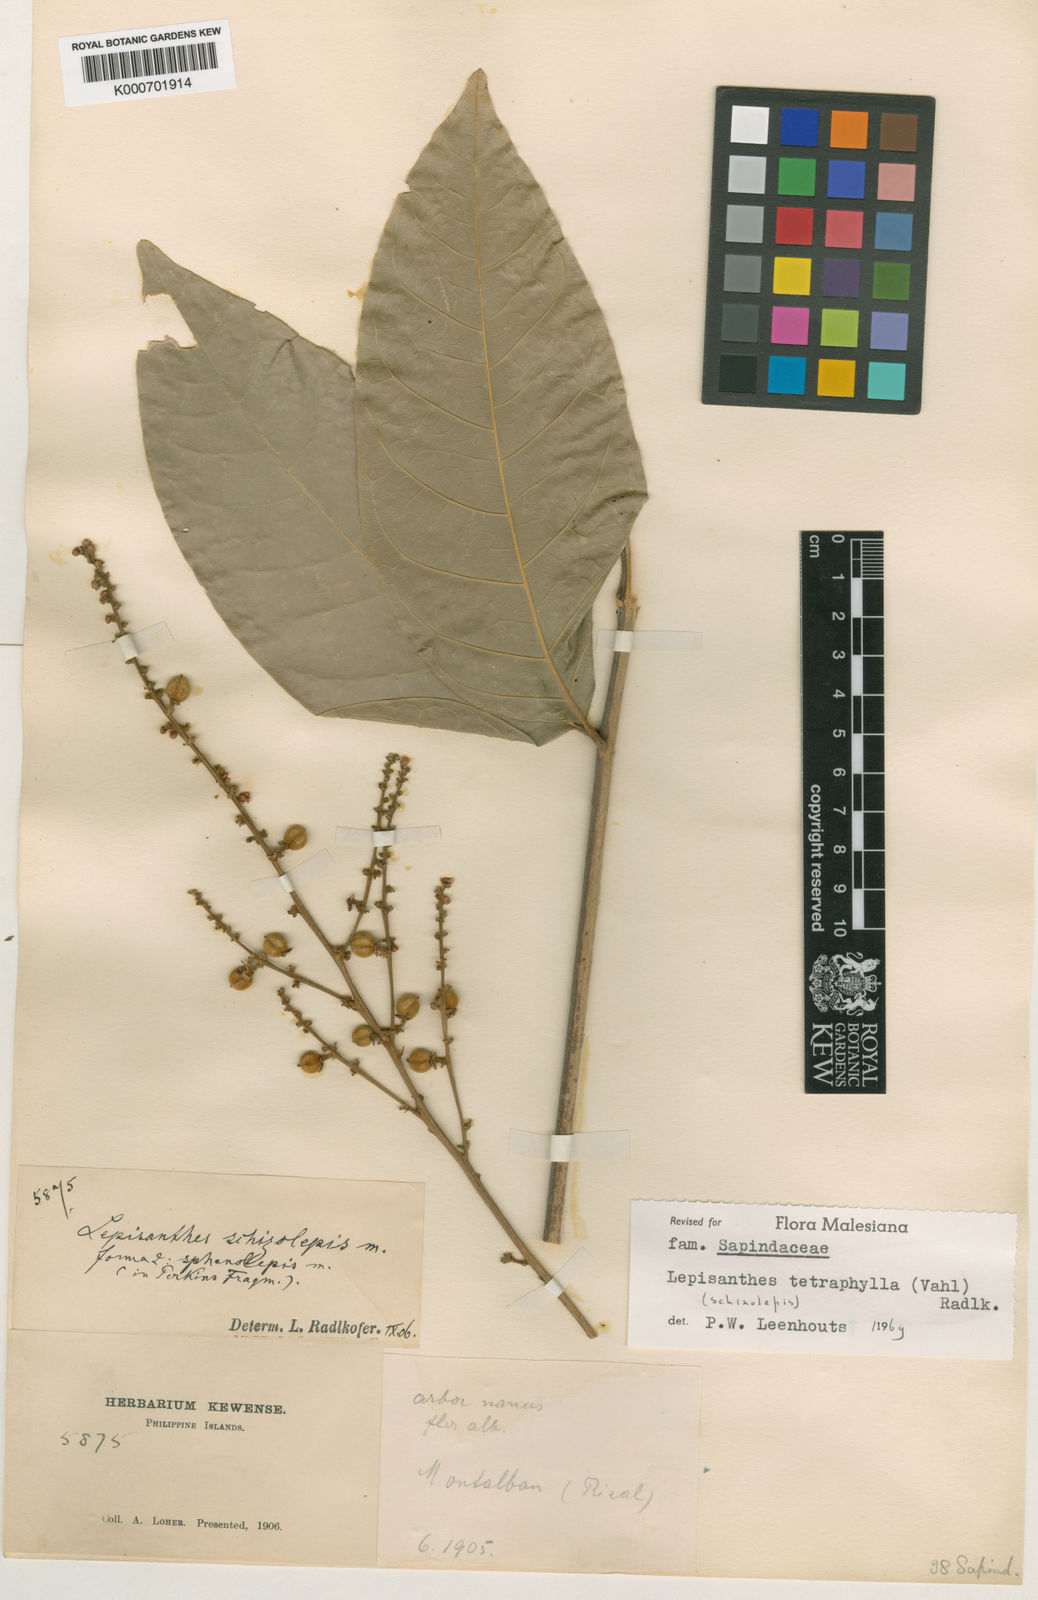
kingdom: Plantae
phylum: Tracheophyta
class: Magnoliopsida
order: Sapindales
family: Sapindaceae
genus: Lepisanthes
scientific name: Lepisanthes tetraphylla
